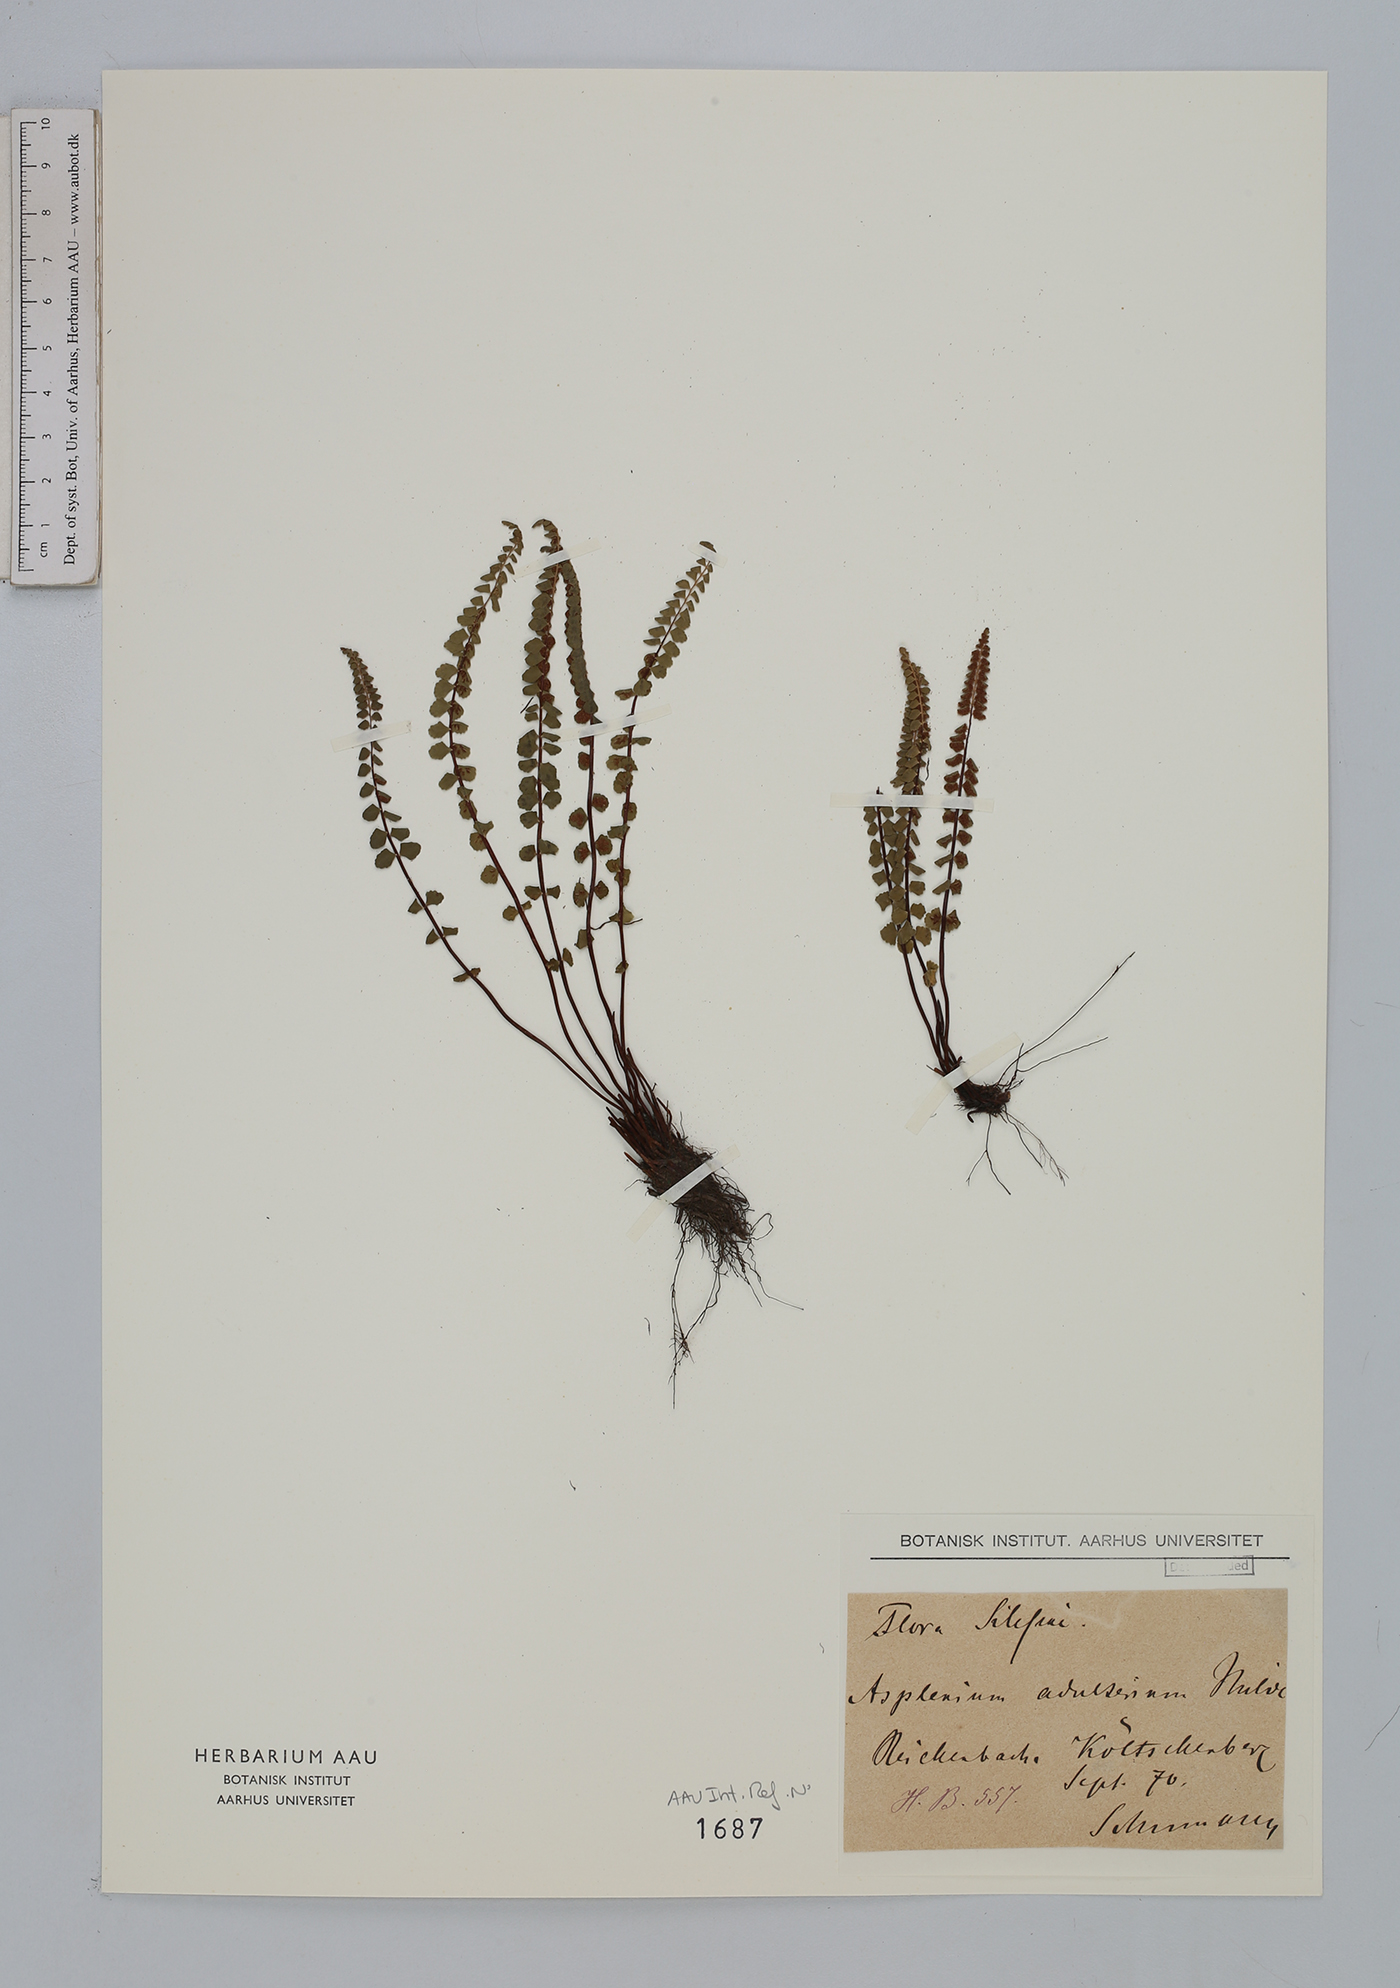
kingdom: Plantae
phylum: Tracheophyta
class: Polypodiopsida
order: Polypodiales
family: Aspleniaceae
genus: Asplenium
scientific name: Asplenium adulterinum
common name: Adulterated spleenwort
